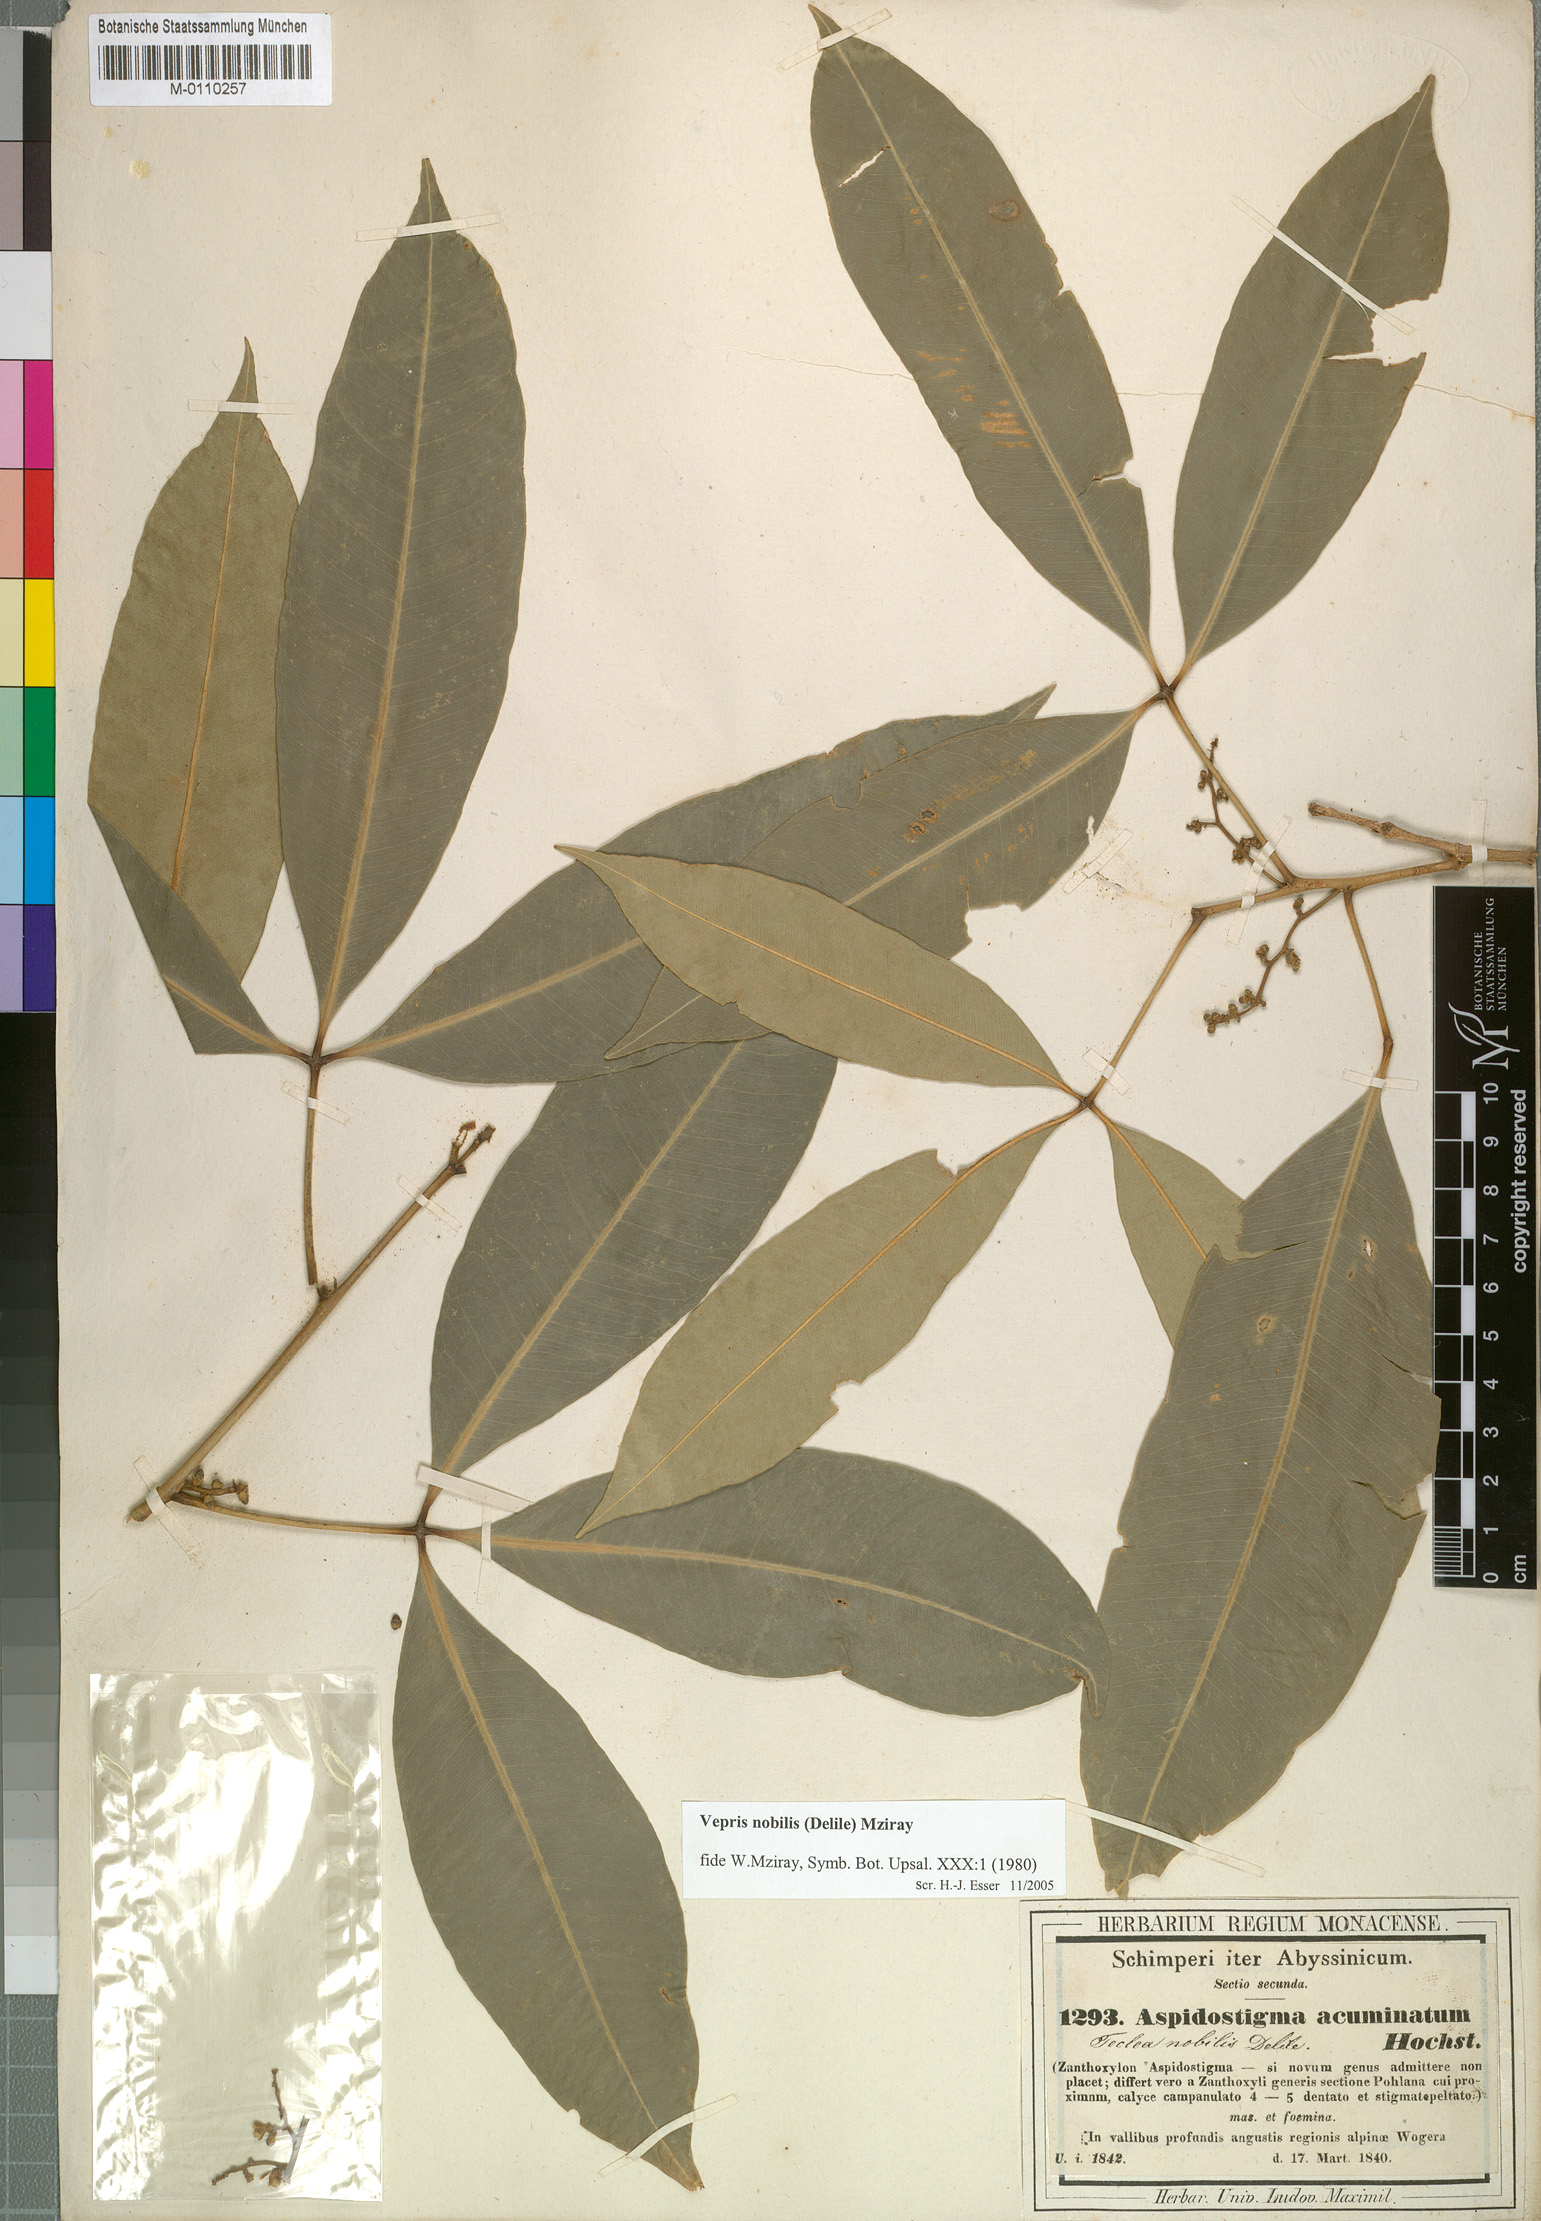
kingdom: Plantae
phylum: Tracheophyta
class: Magnoliopsida
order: Sapindales
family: Rutaceae
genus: Vepris
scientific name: Vepris nobilis
